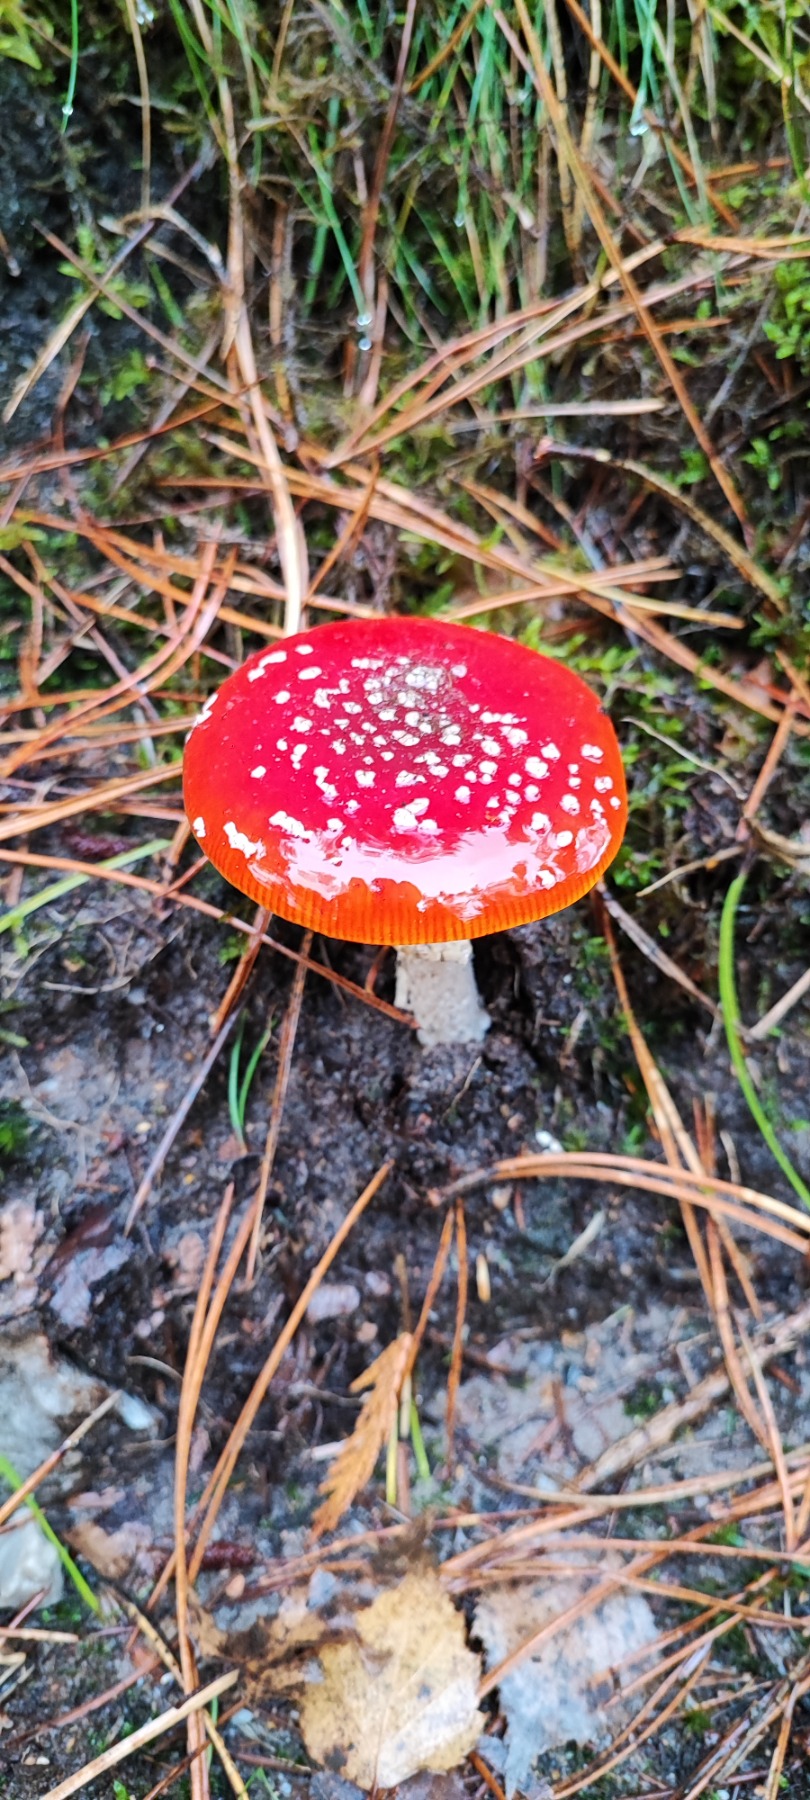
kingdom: Fungi
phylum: Basidiomycota
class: Agaricomycetes
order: Agaricales
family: Amanitaceae
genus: Amanita
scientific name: Amanita muscaria
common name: Rød fluesvamp
